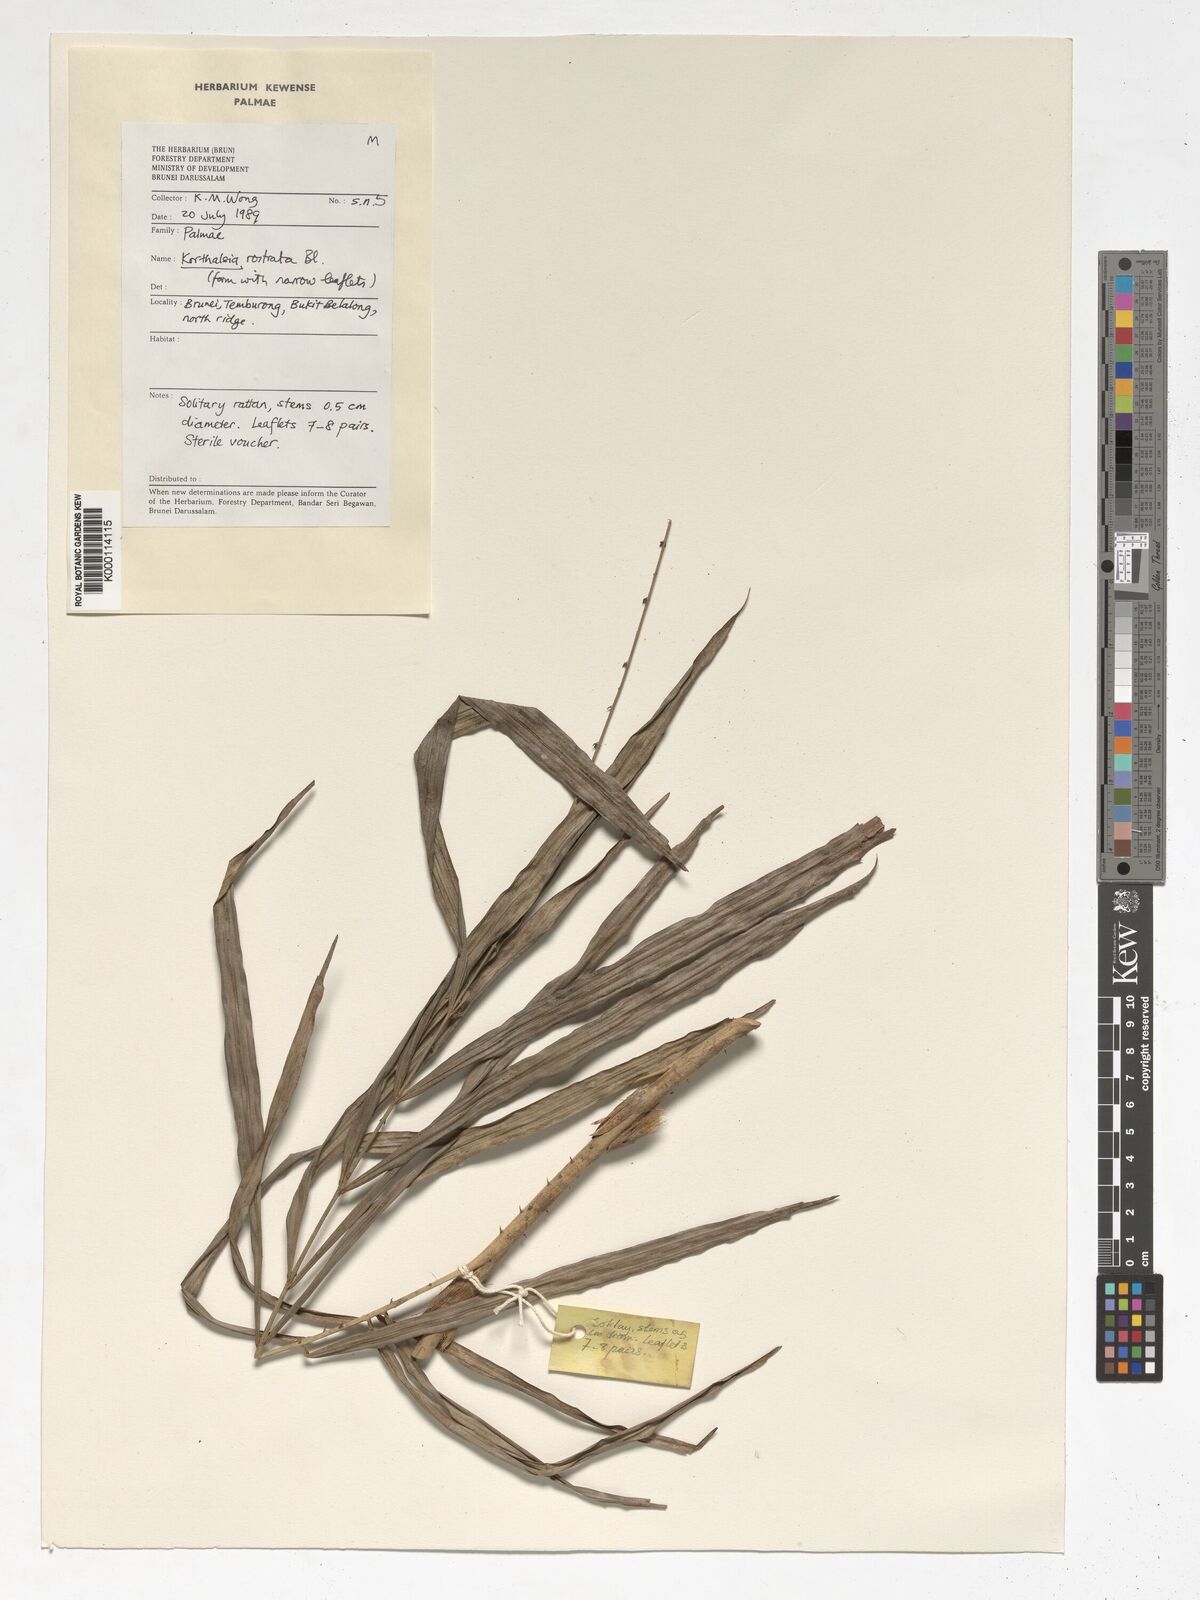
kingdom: Plantae
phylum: Tracheophyta
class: Liliopsida
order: Arecales
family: Arecaceae
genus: Korthalsia
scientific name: Korthalsia rostrata
